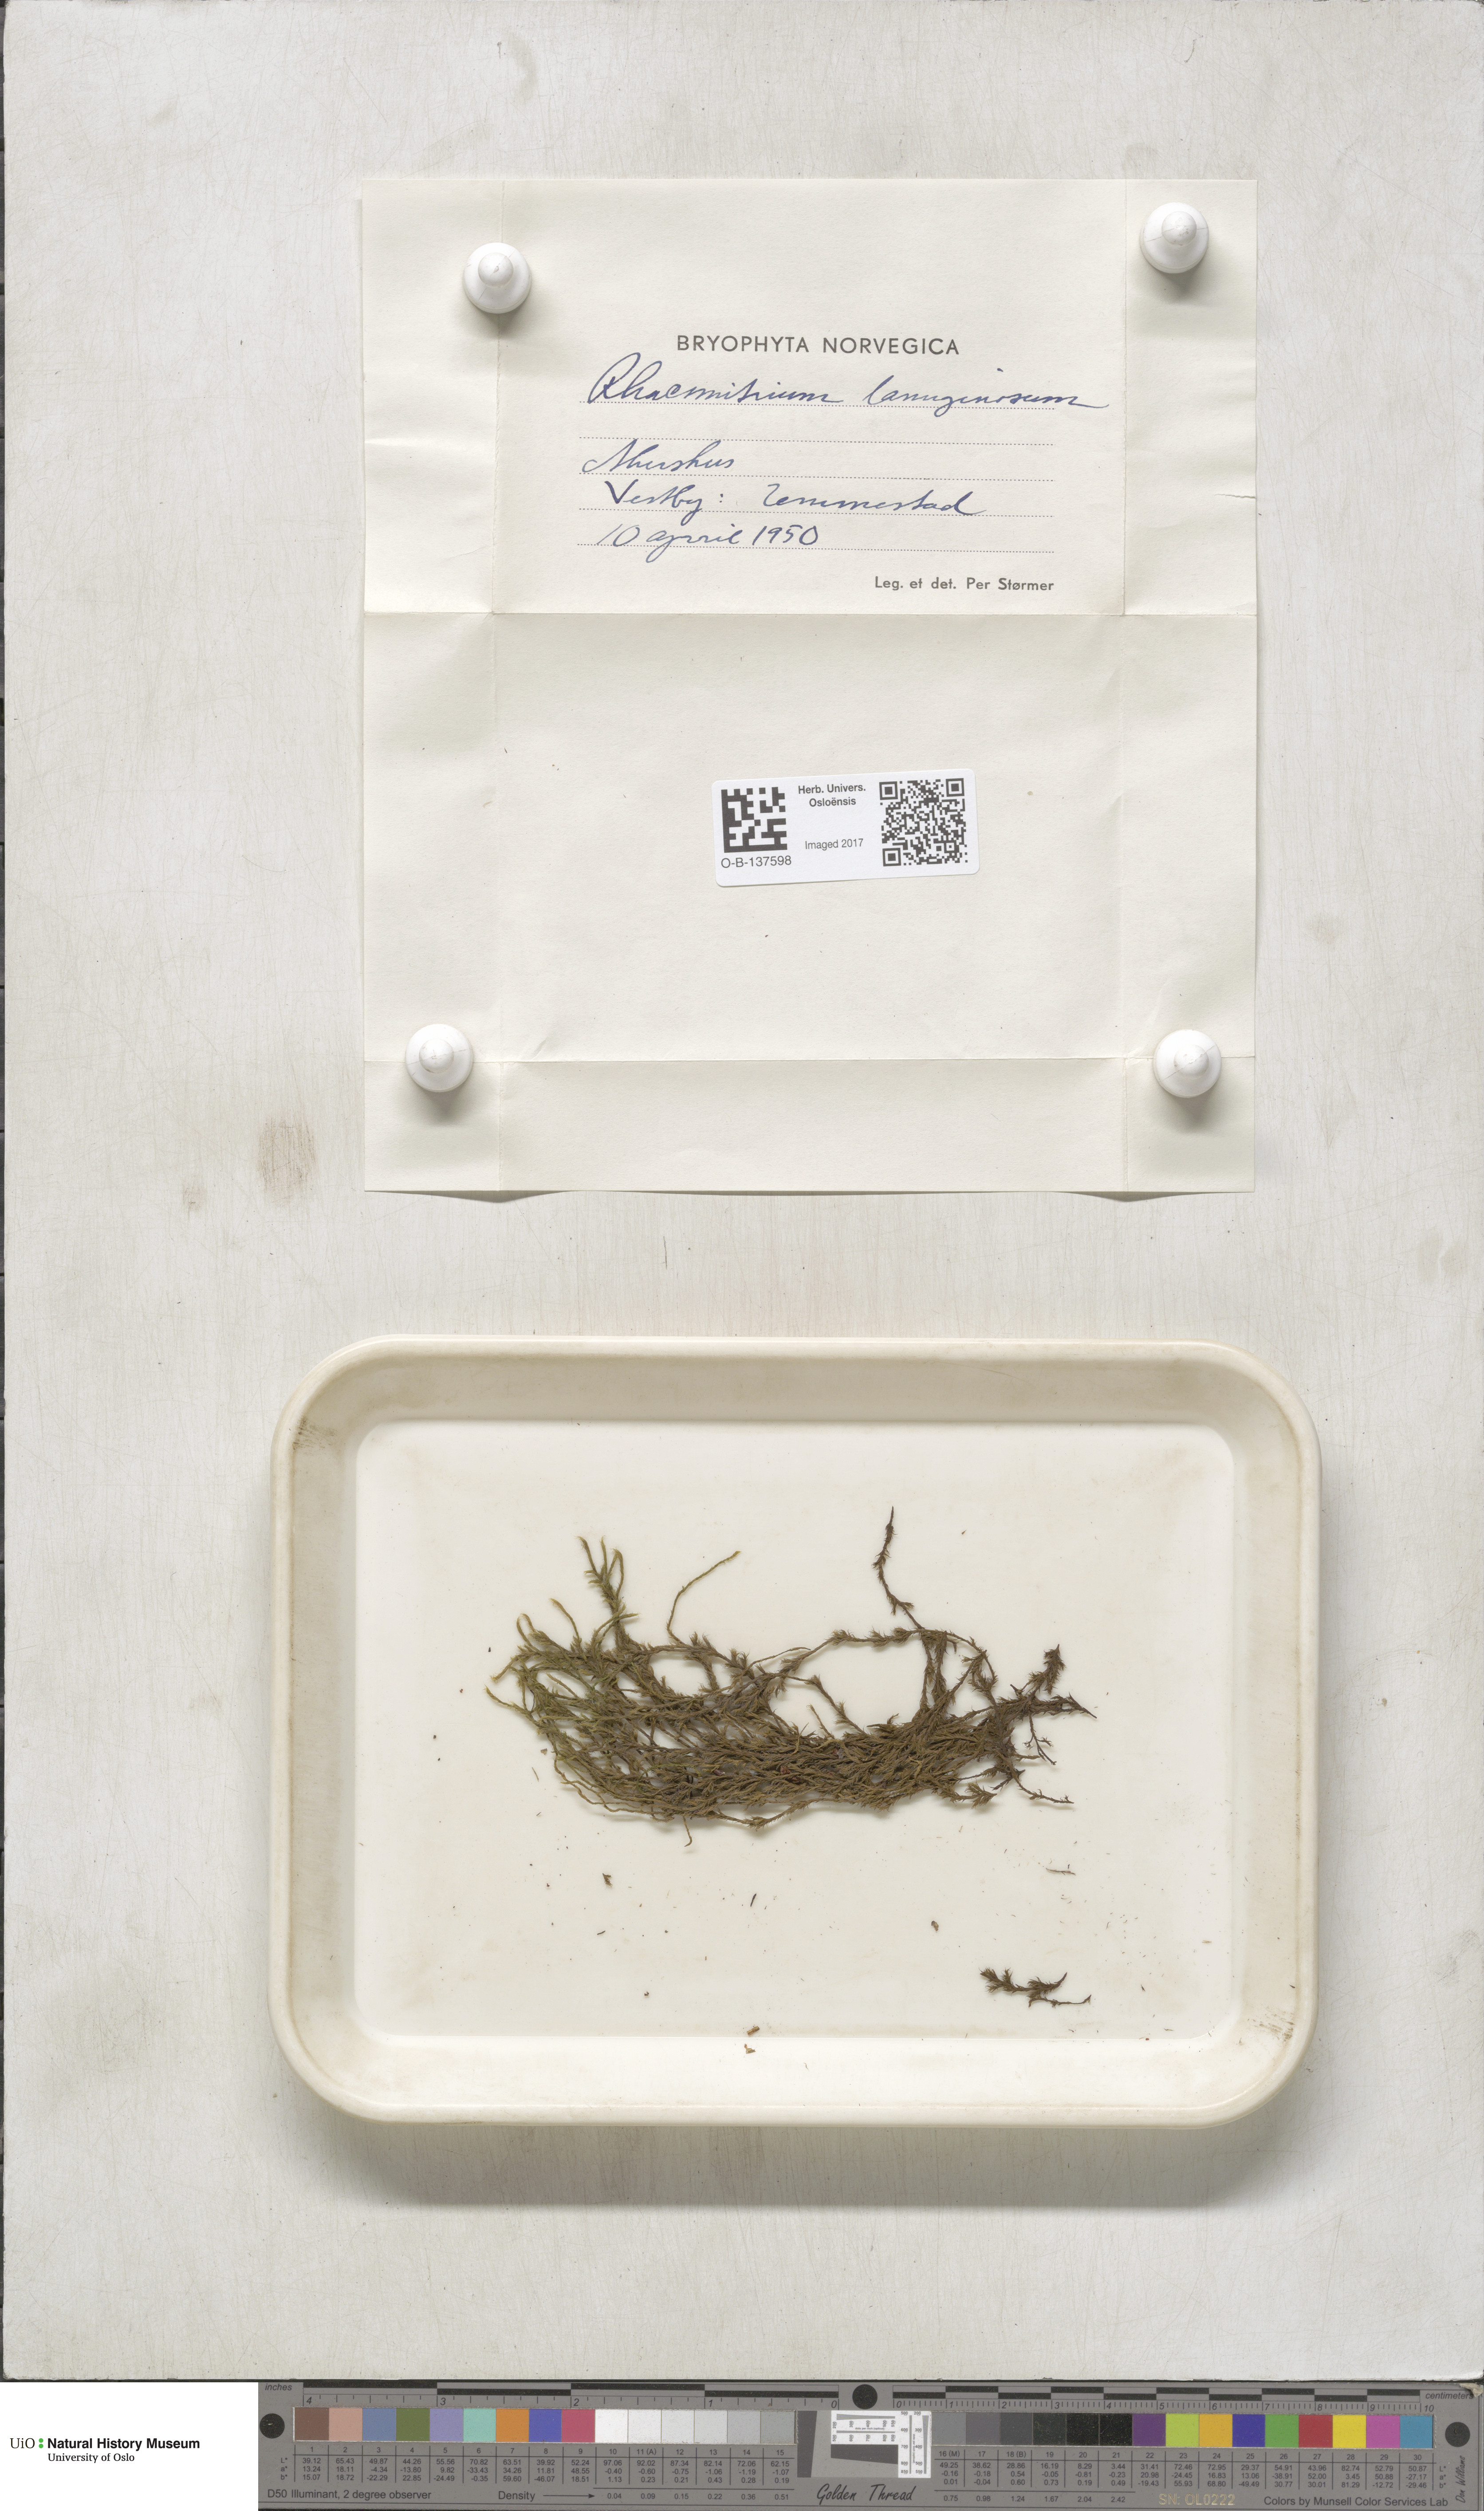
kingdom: Plantae
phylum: Bryophyta
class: Bryopsida
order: Grimmiales
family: Grimmiaceae
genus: Racomitrium
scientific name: Racomitrium lanuginosum
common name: Hoary rock moss
